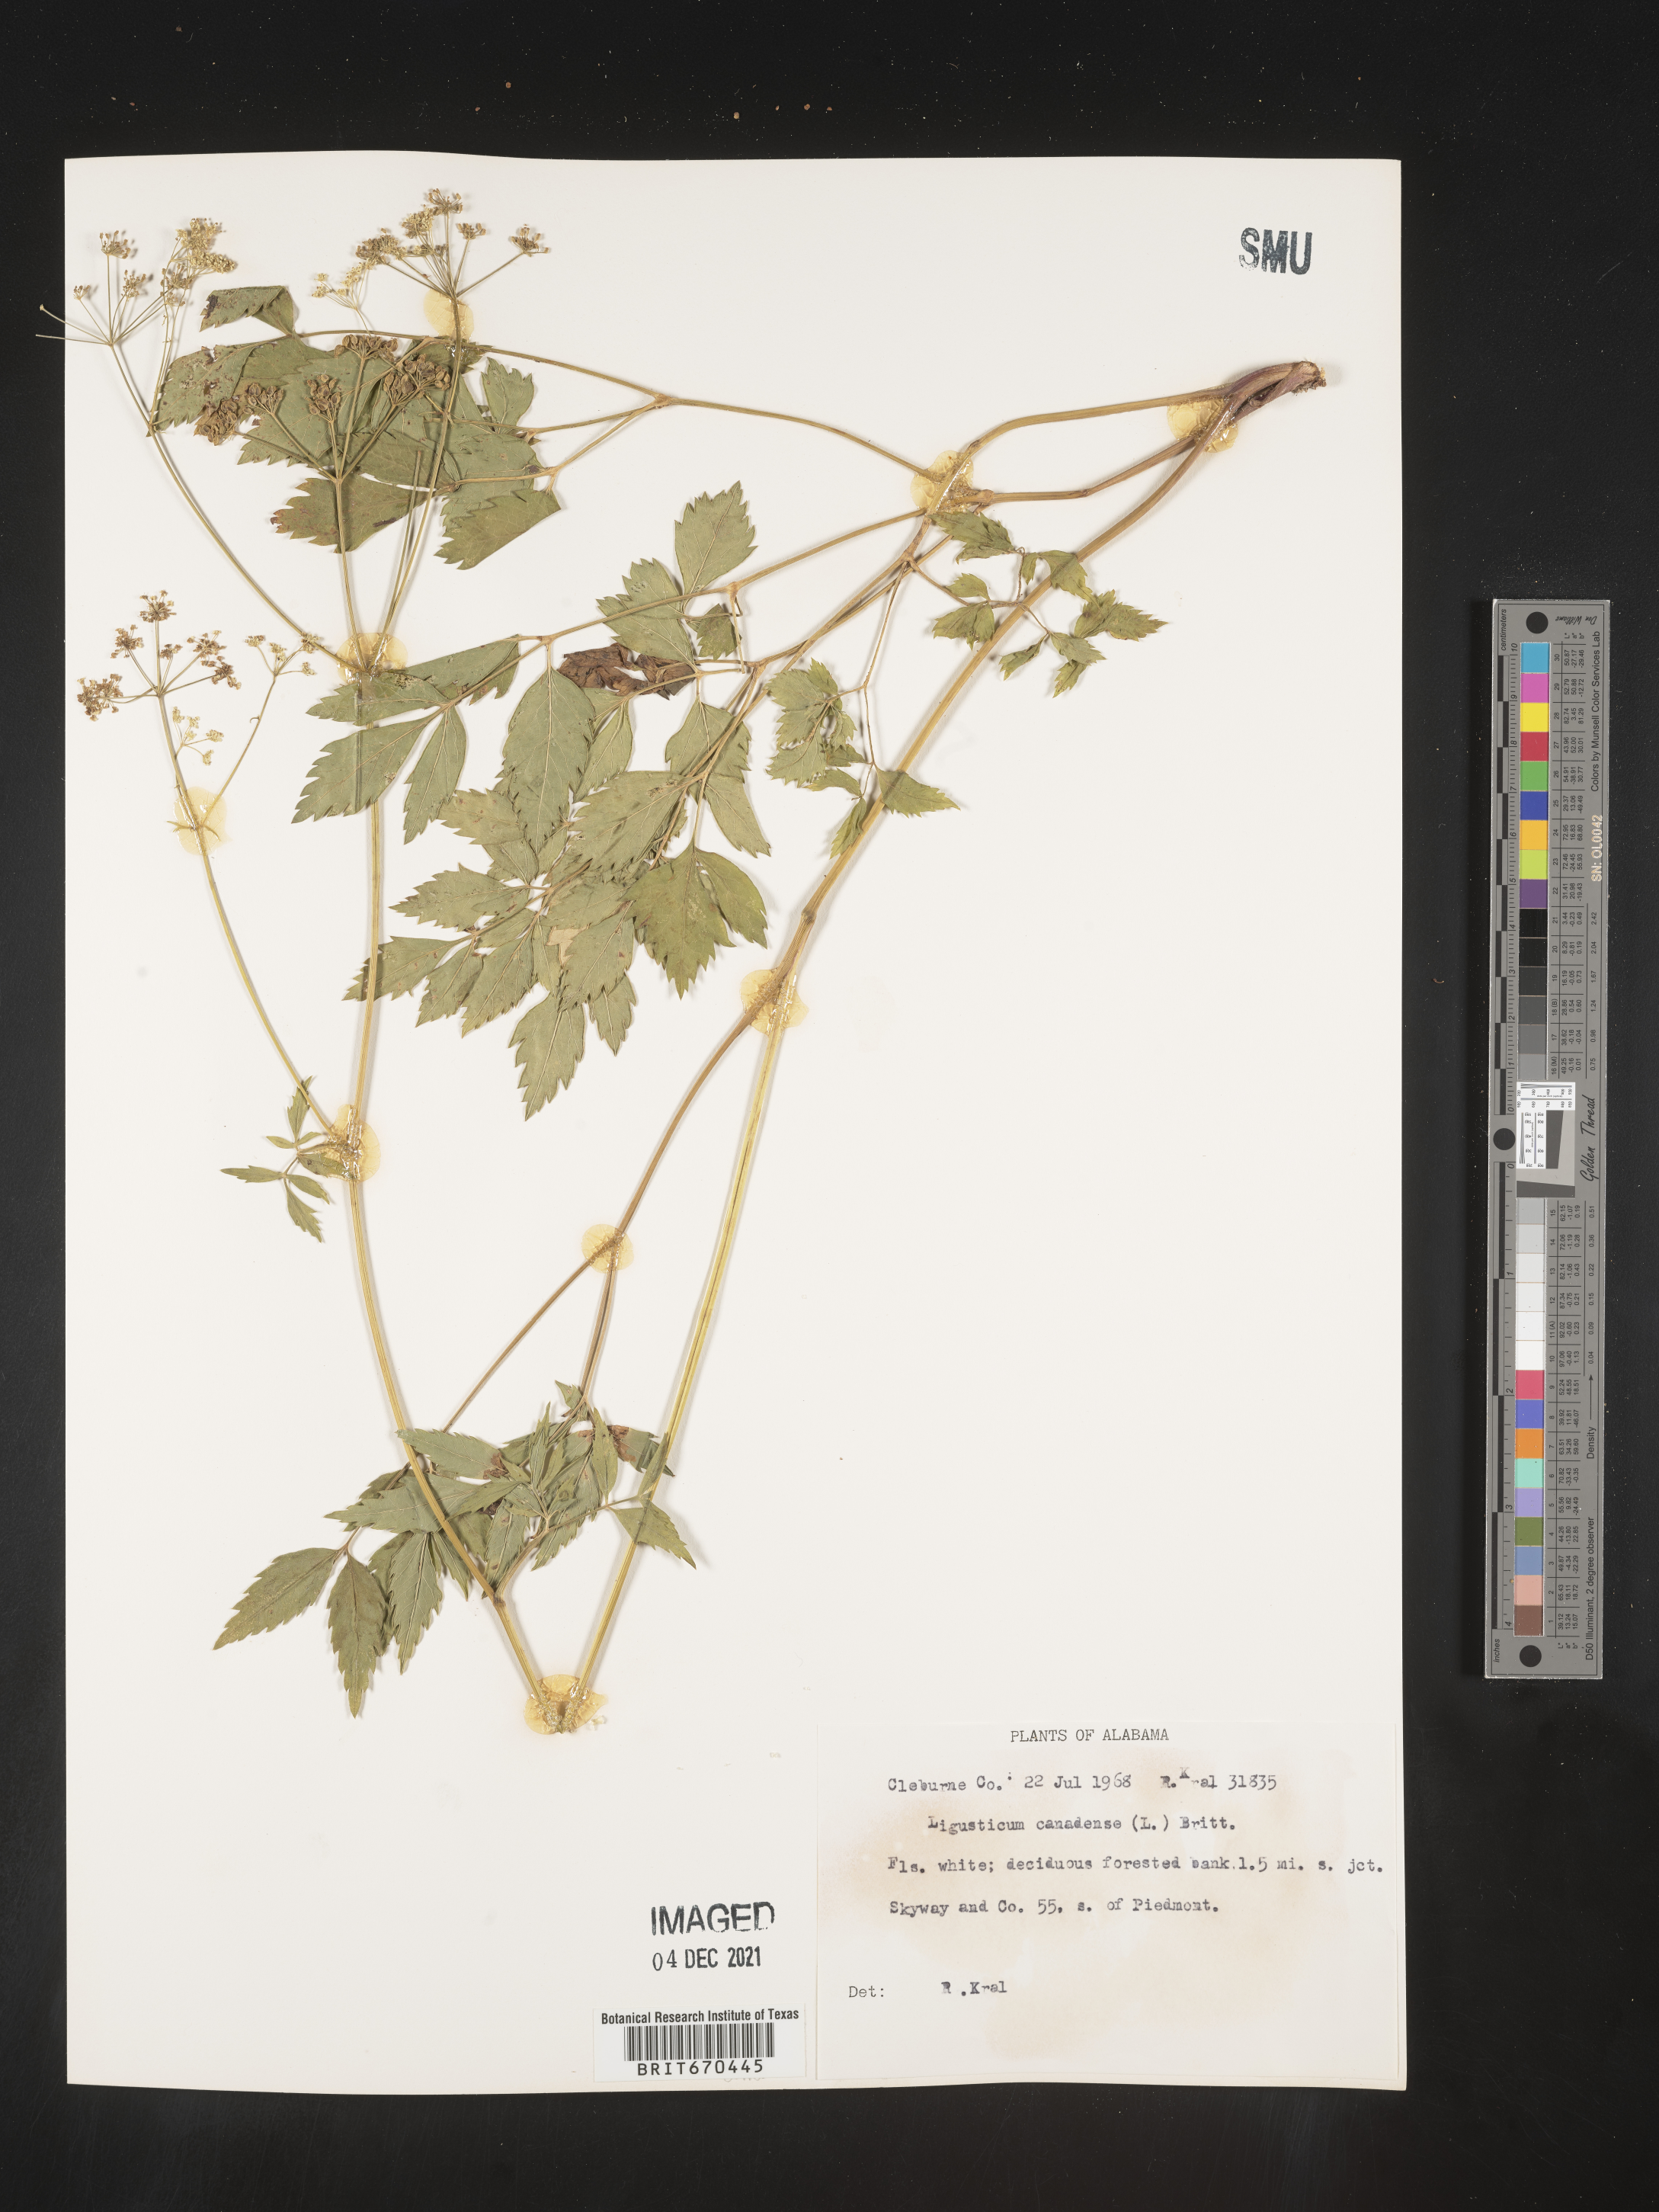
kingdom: Plantae
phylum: Tracheophyta
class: Magnoliopsida
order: Apiales
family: Apiaceae
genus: Ligusticum
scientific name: Ligusticum
